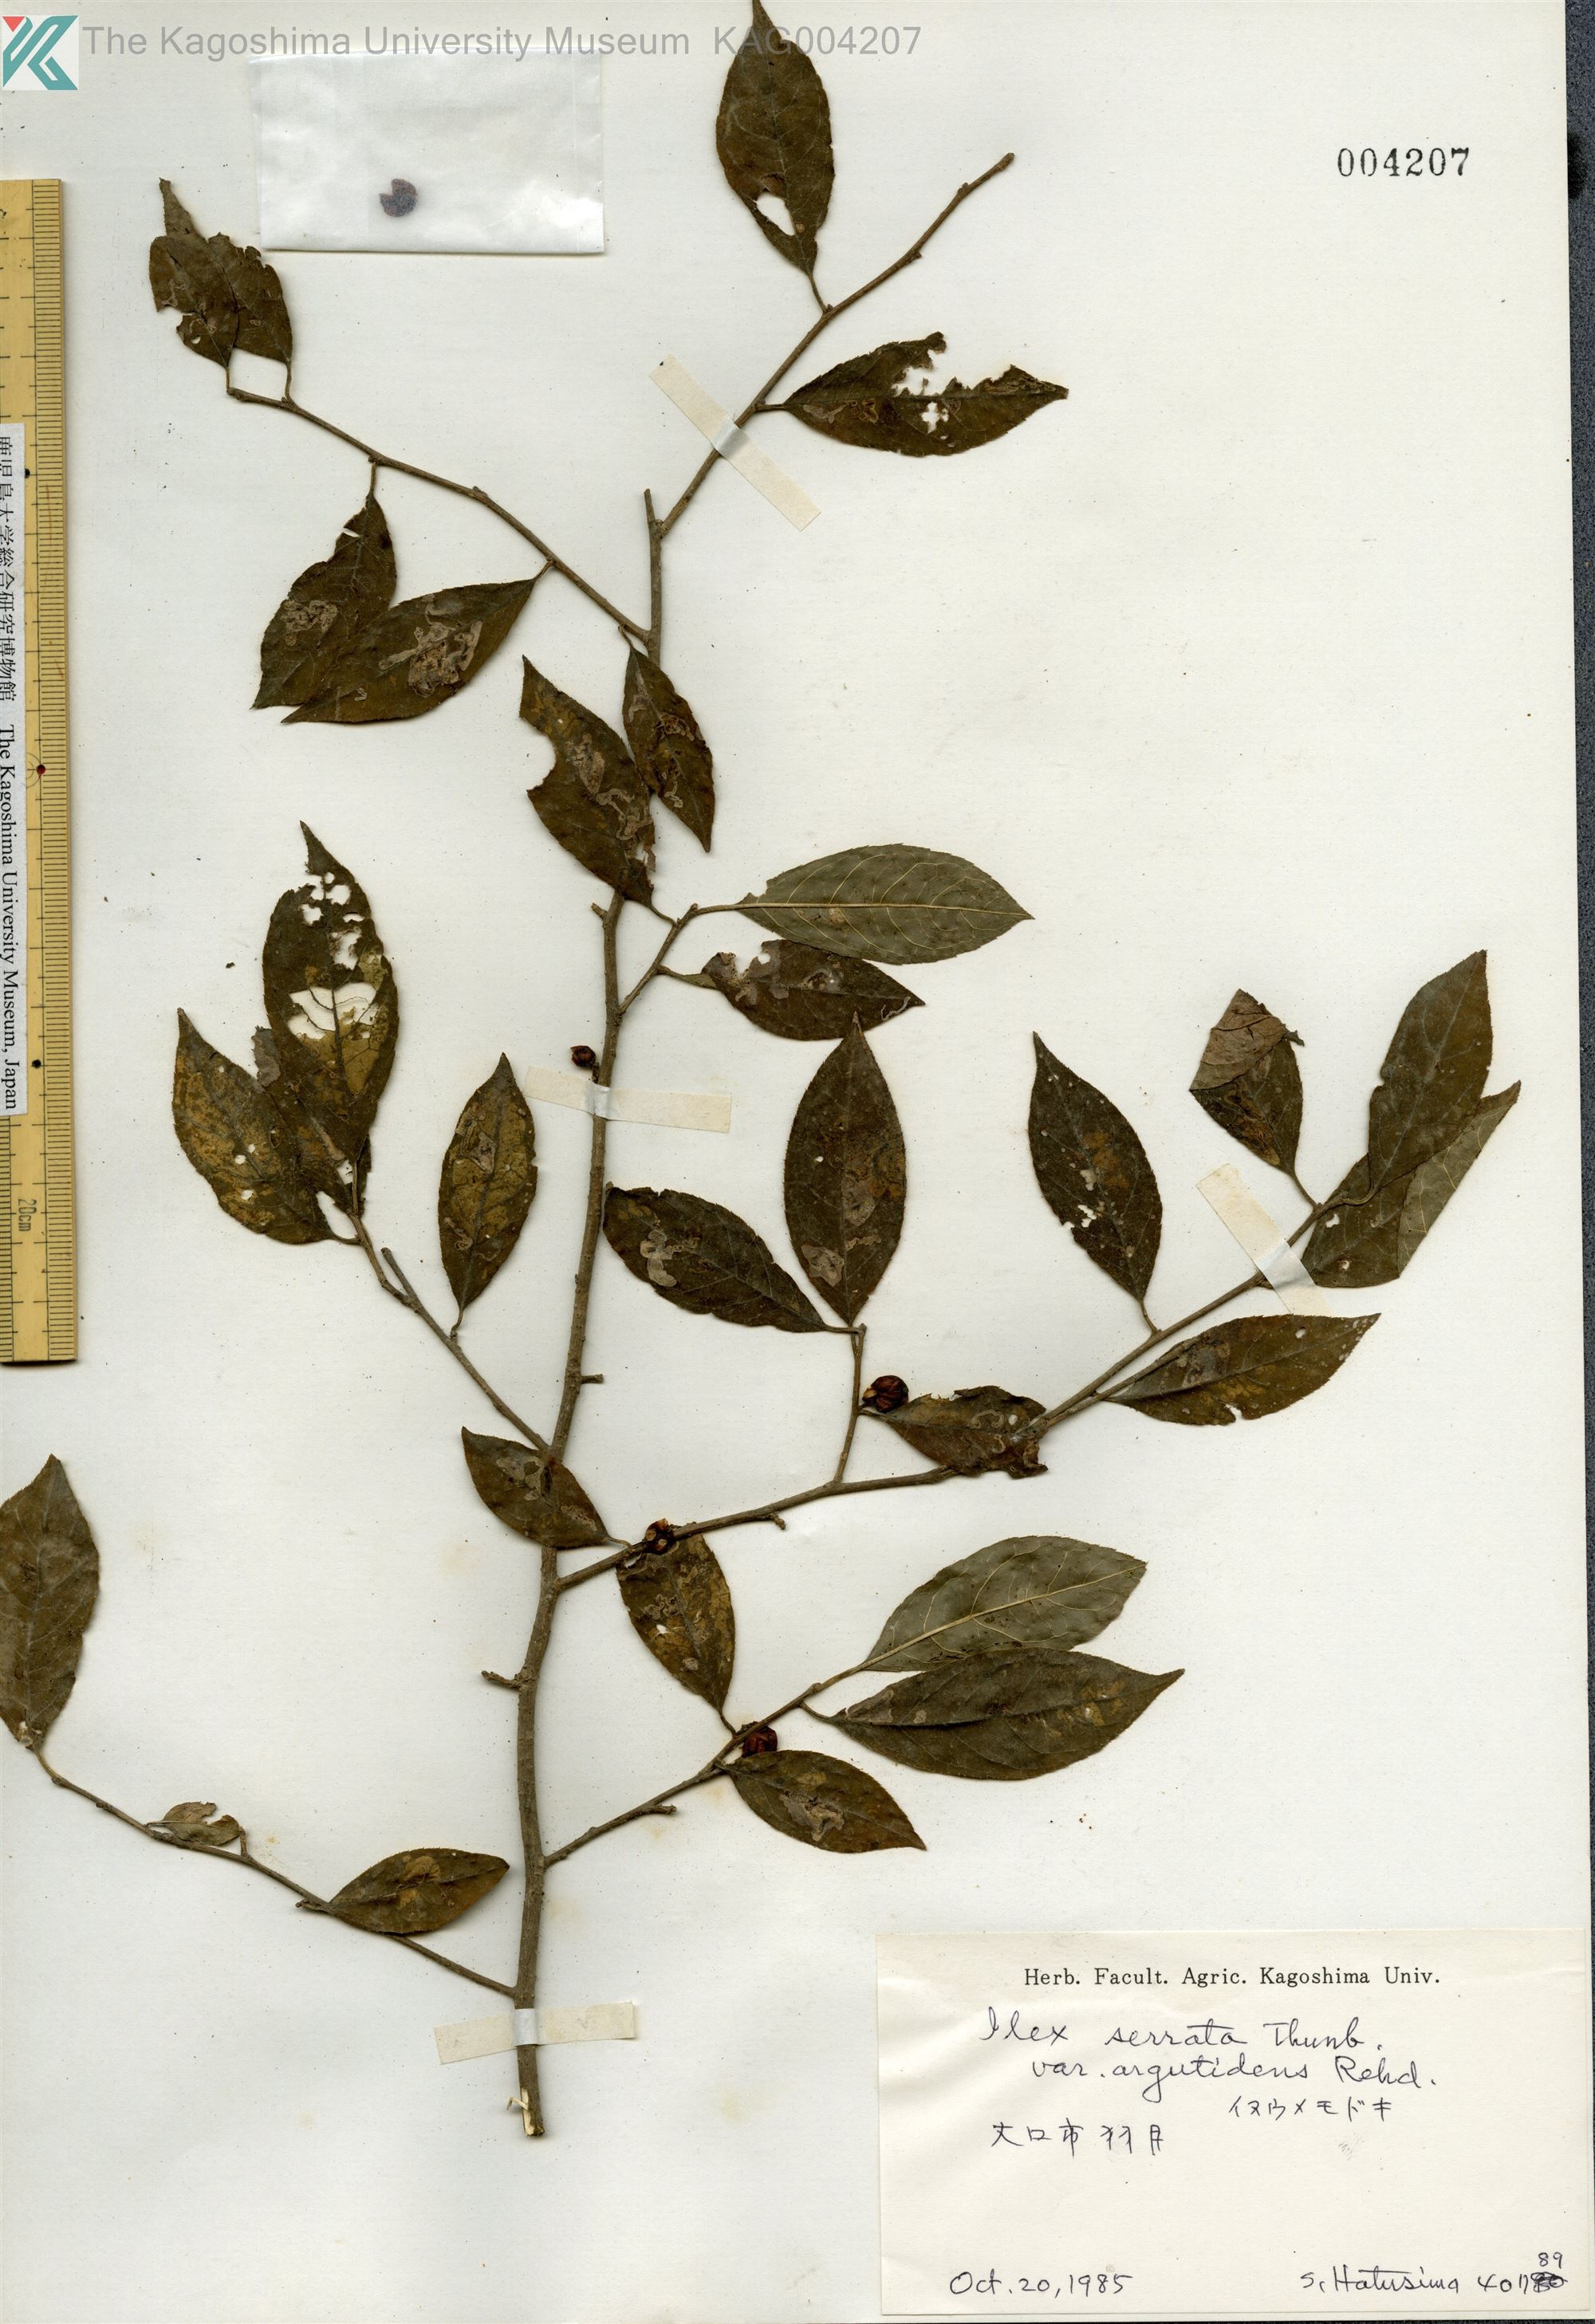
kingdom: Plantae
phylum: Tracheophyta
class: Magnoliopsida
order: Aquifoliales
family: Aquifoliaceae
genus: Ilex
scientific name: Ilex serrata
